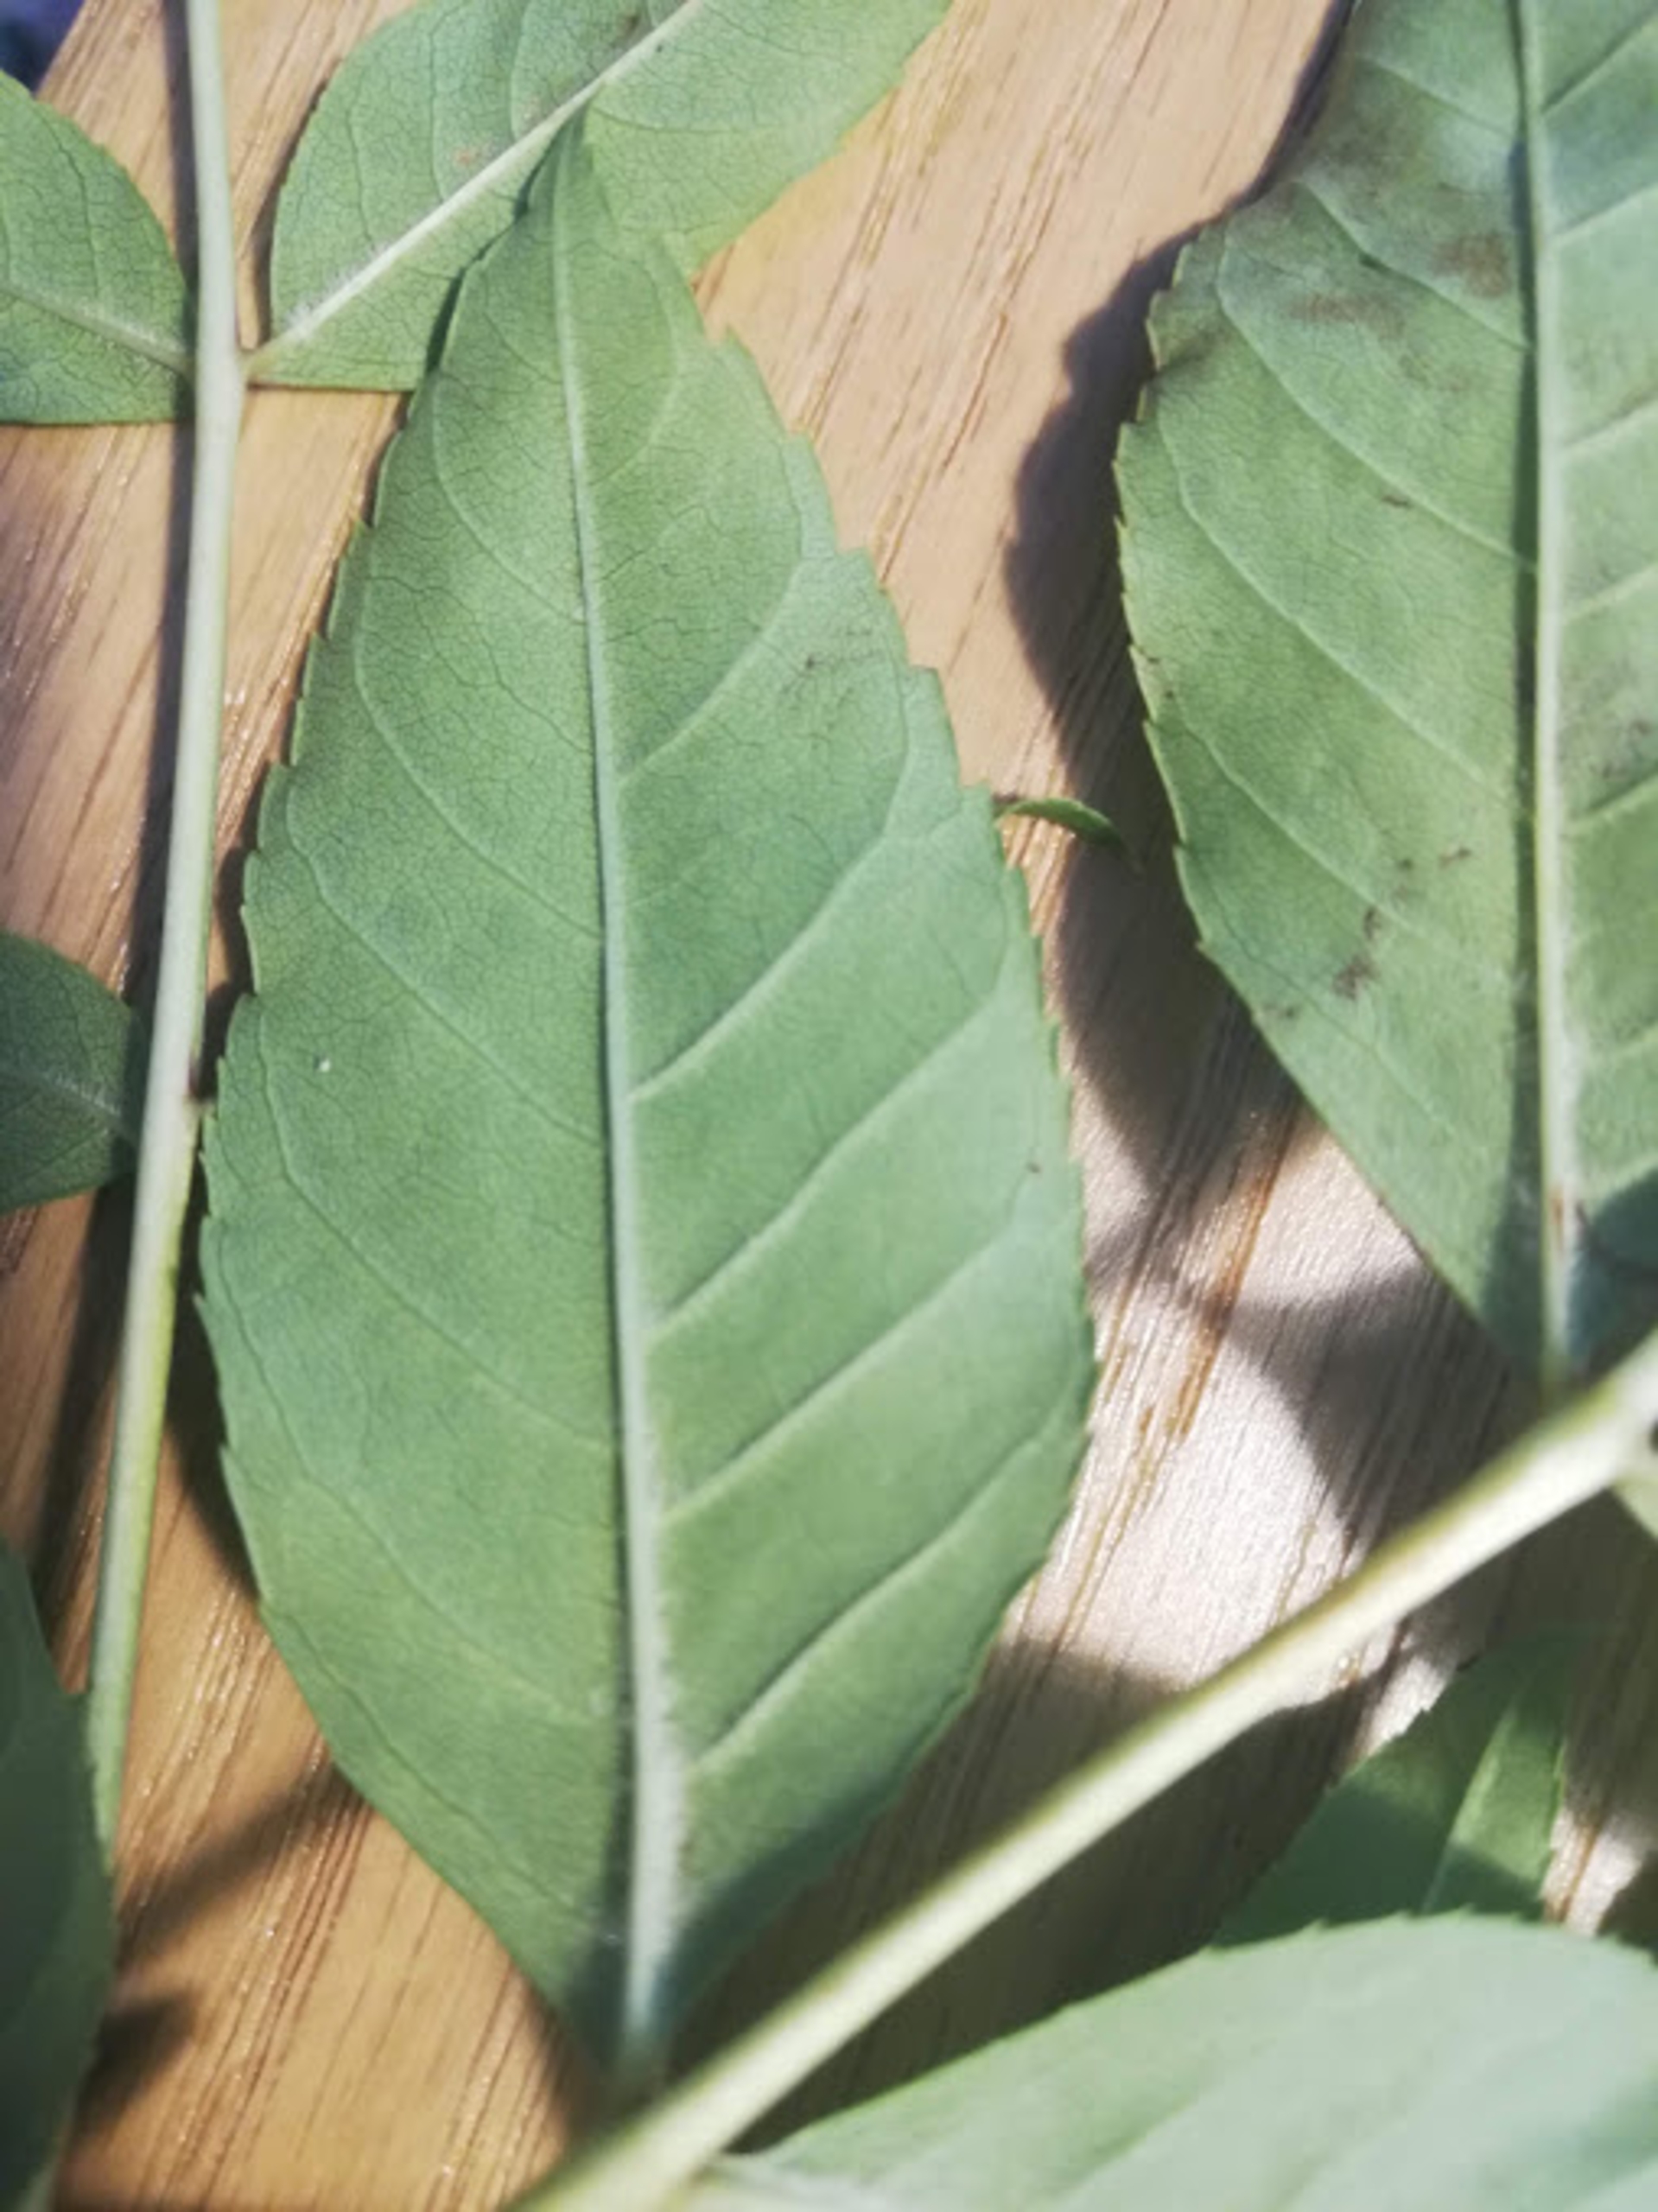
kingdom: Plantae
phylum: Tracheophyta
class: Magnoliopsida
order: Lamiales
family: Oleaceae
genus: Fraxinus
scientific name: Fraxinus excelsior
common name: Ask
